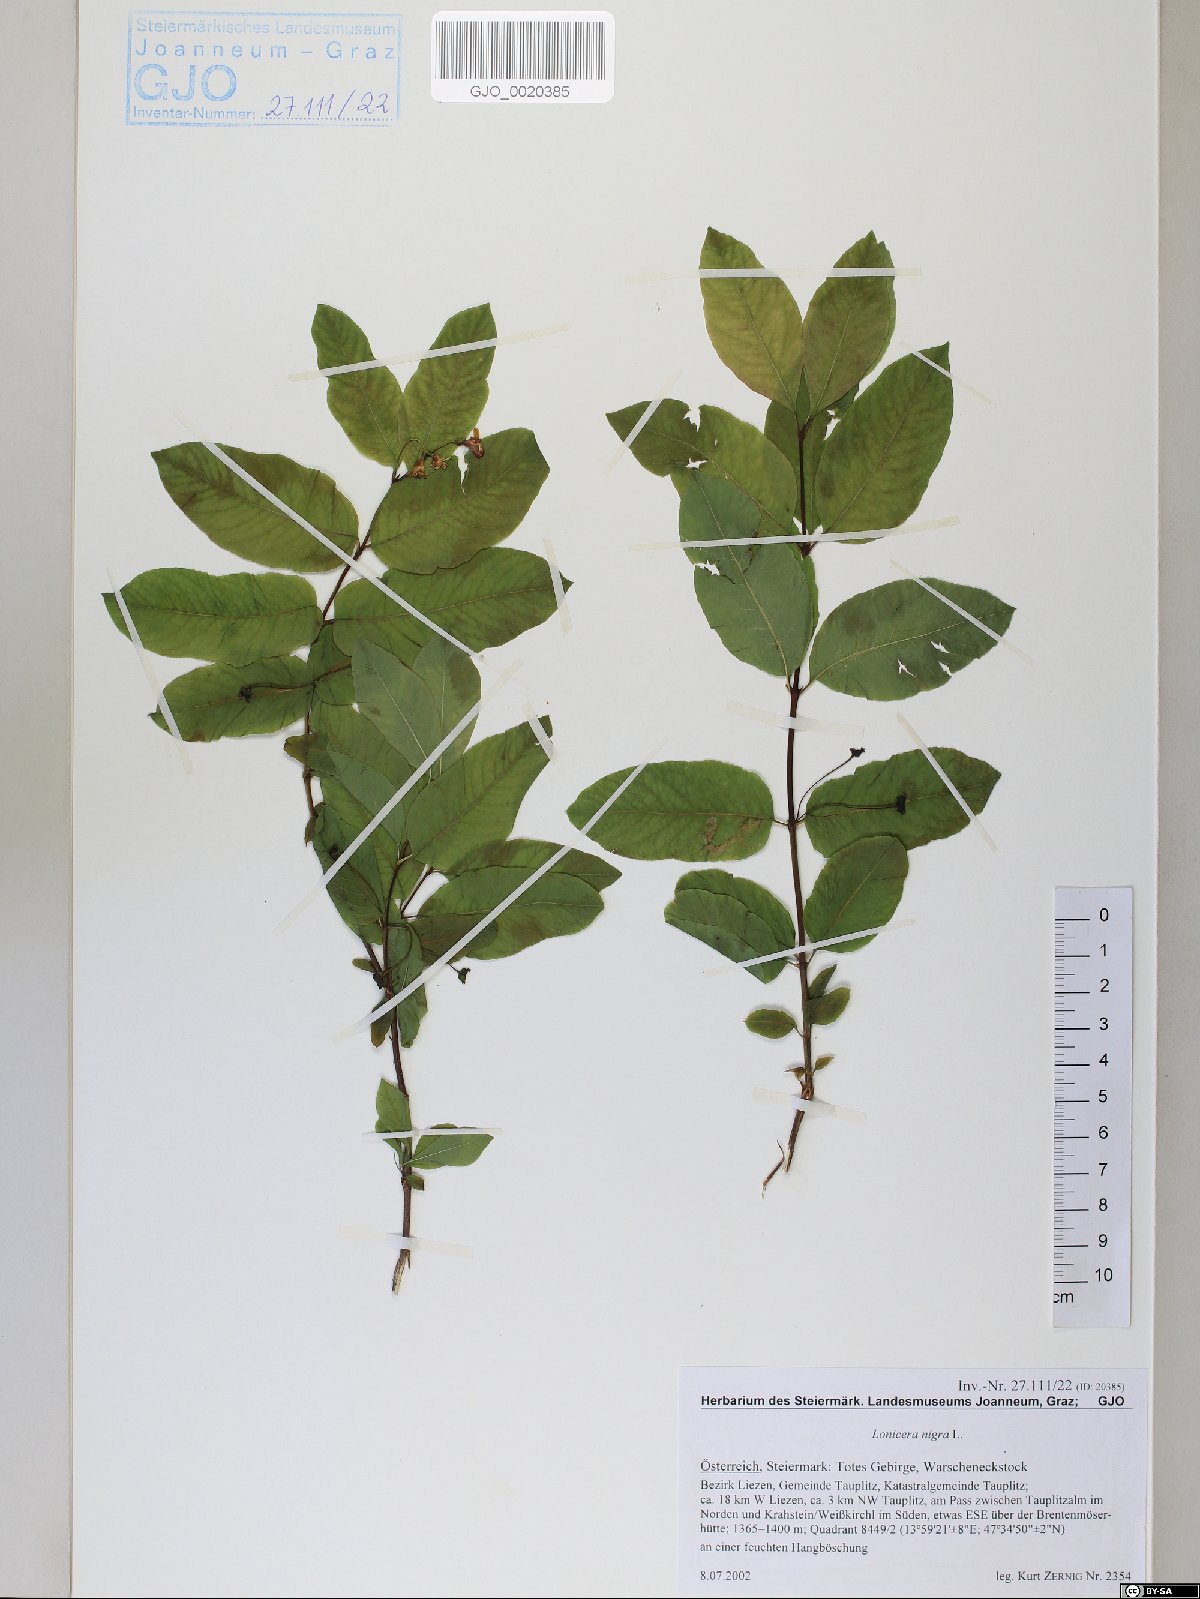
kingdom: Plantae
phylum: Tracheophyta
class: Magnoliopsida
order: Dipsacales
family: Caprifoliaceae
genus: Lonicera
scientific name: Lonicera nigra
